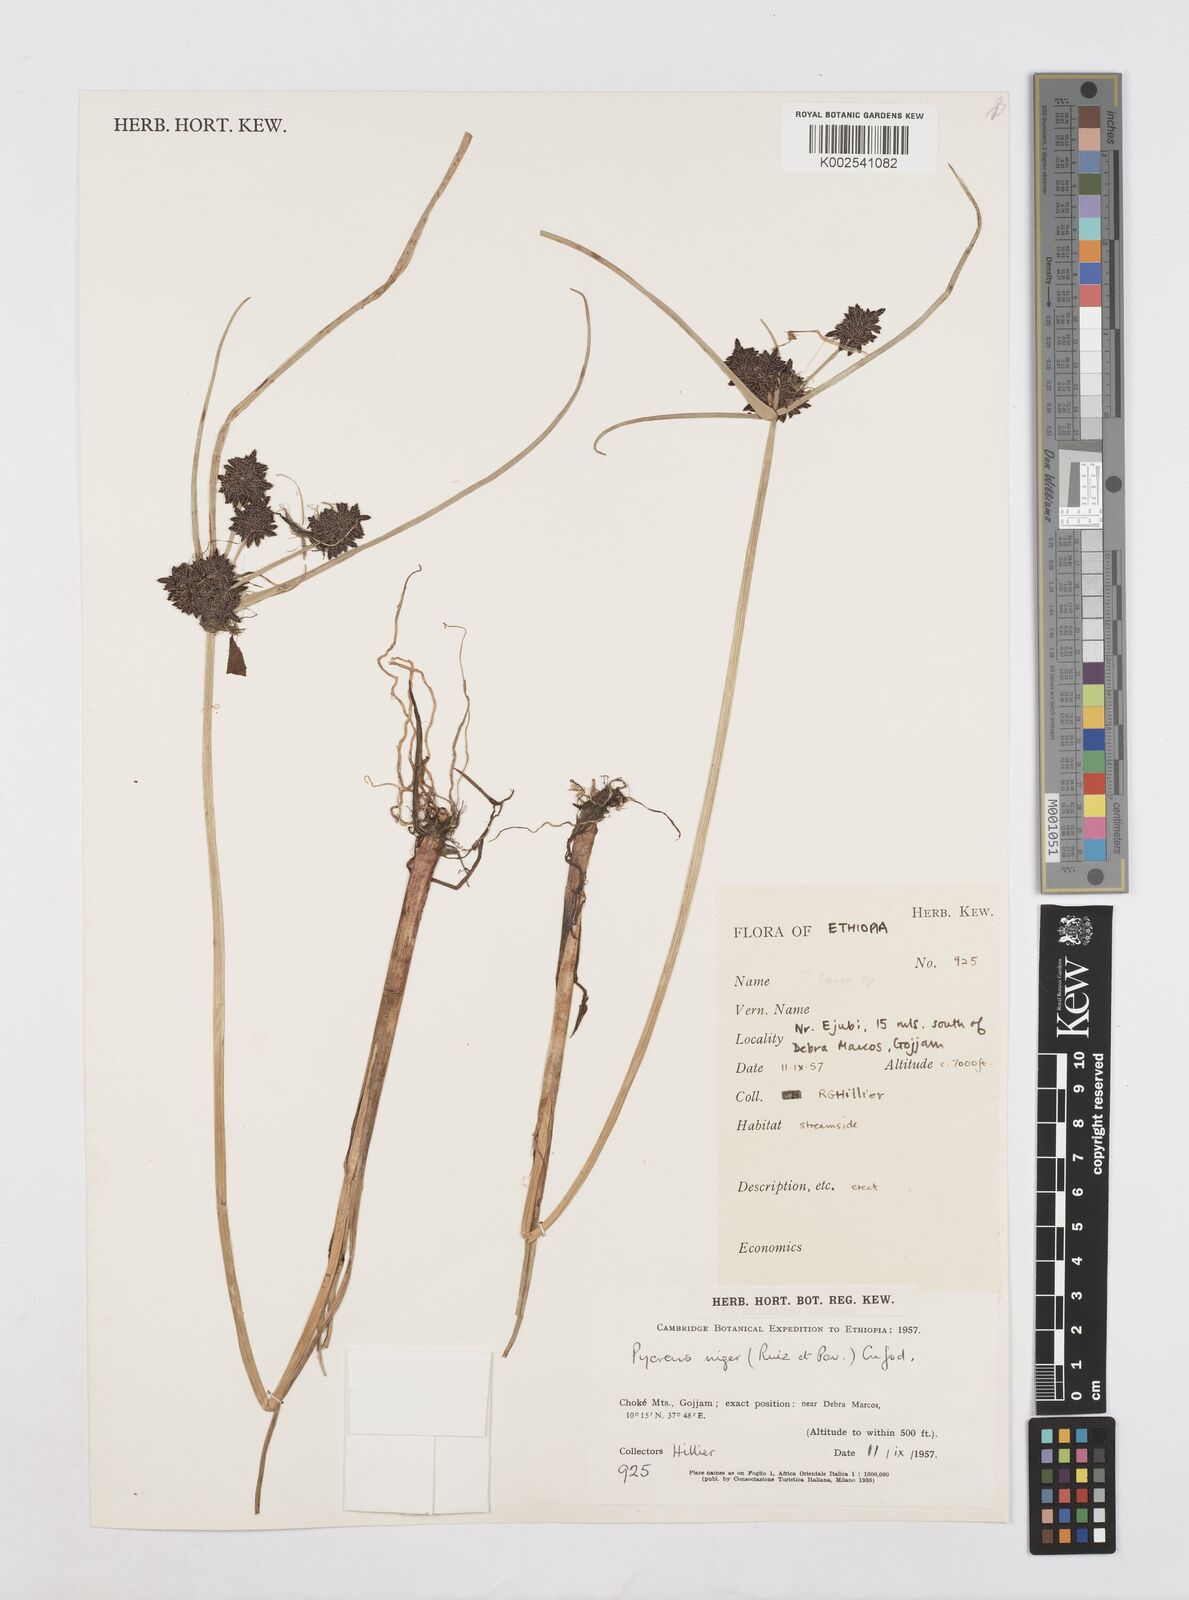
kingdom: Plantae
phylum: Tracheophyta
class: Liliopsida
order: Poales
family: Cyperaceae
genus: Cyperus
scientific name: Cyperus elegantulus
